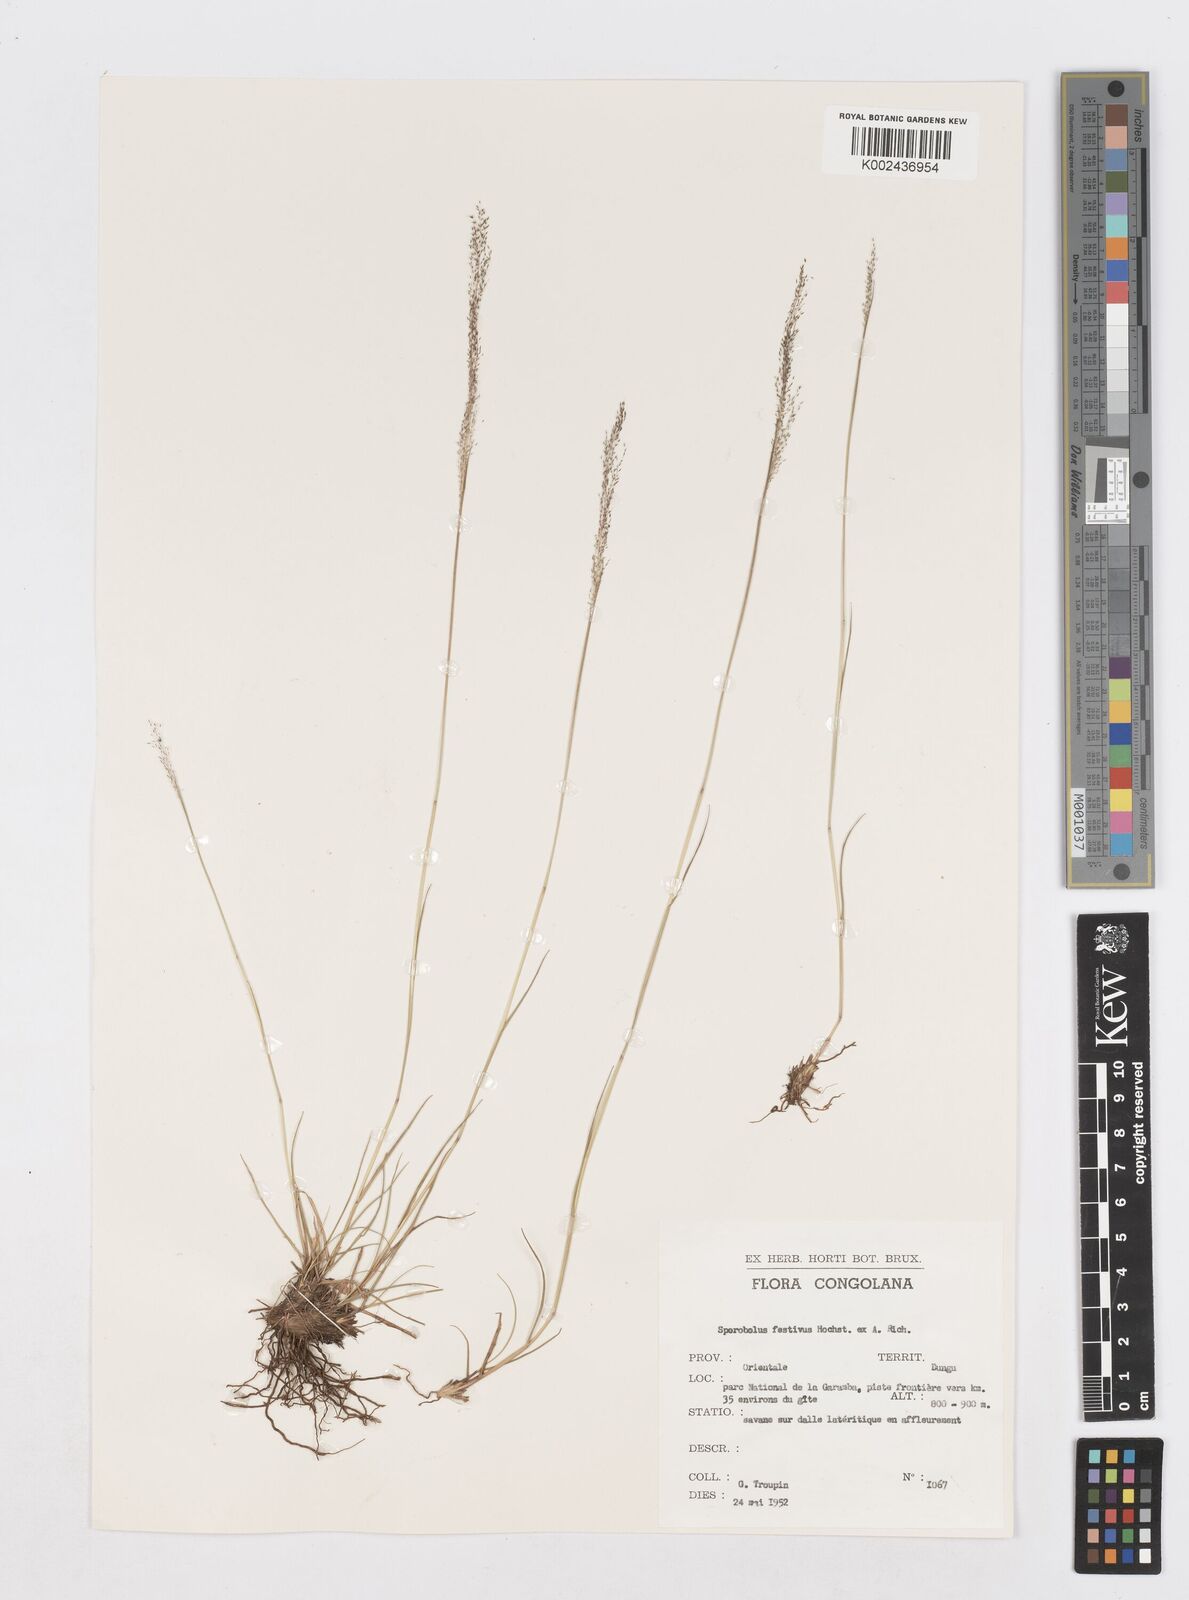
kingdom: Plantae
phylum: Tracheophyta
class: Liliopsida
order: Poales
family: Poaceae
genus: Sporobolus
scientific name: Sporobolus festivus
